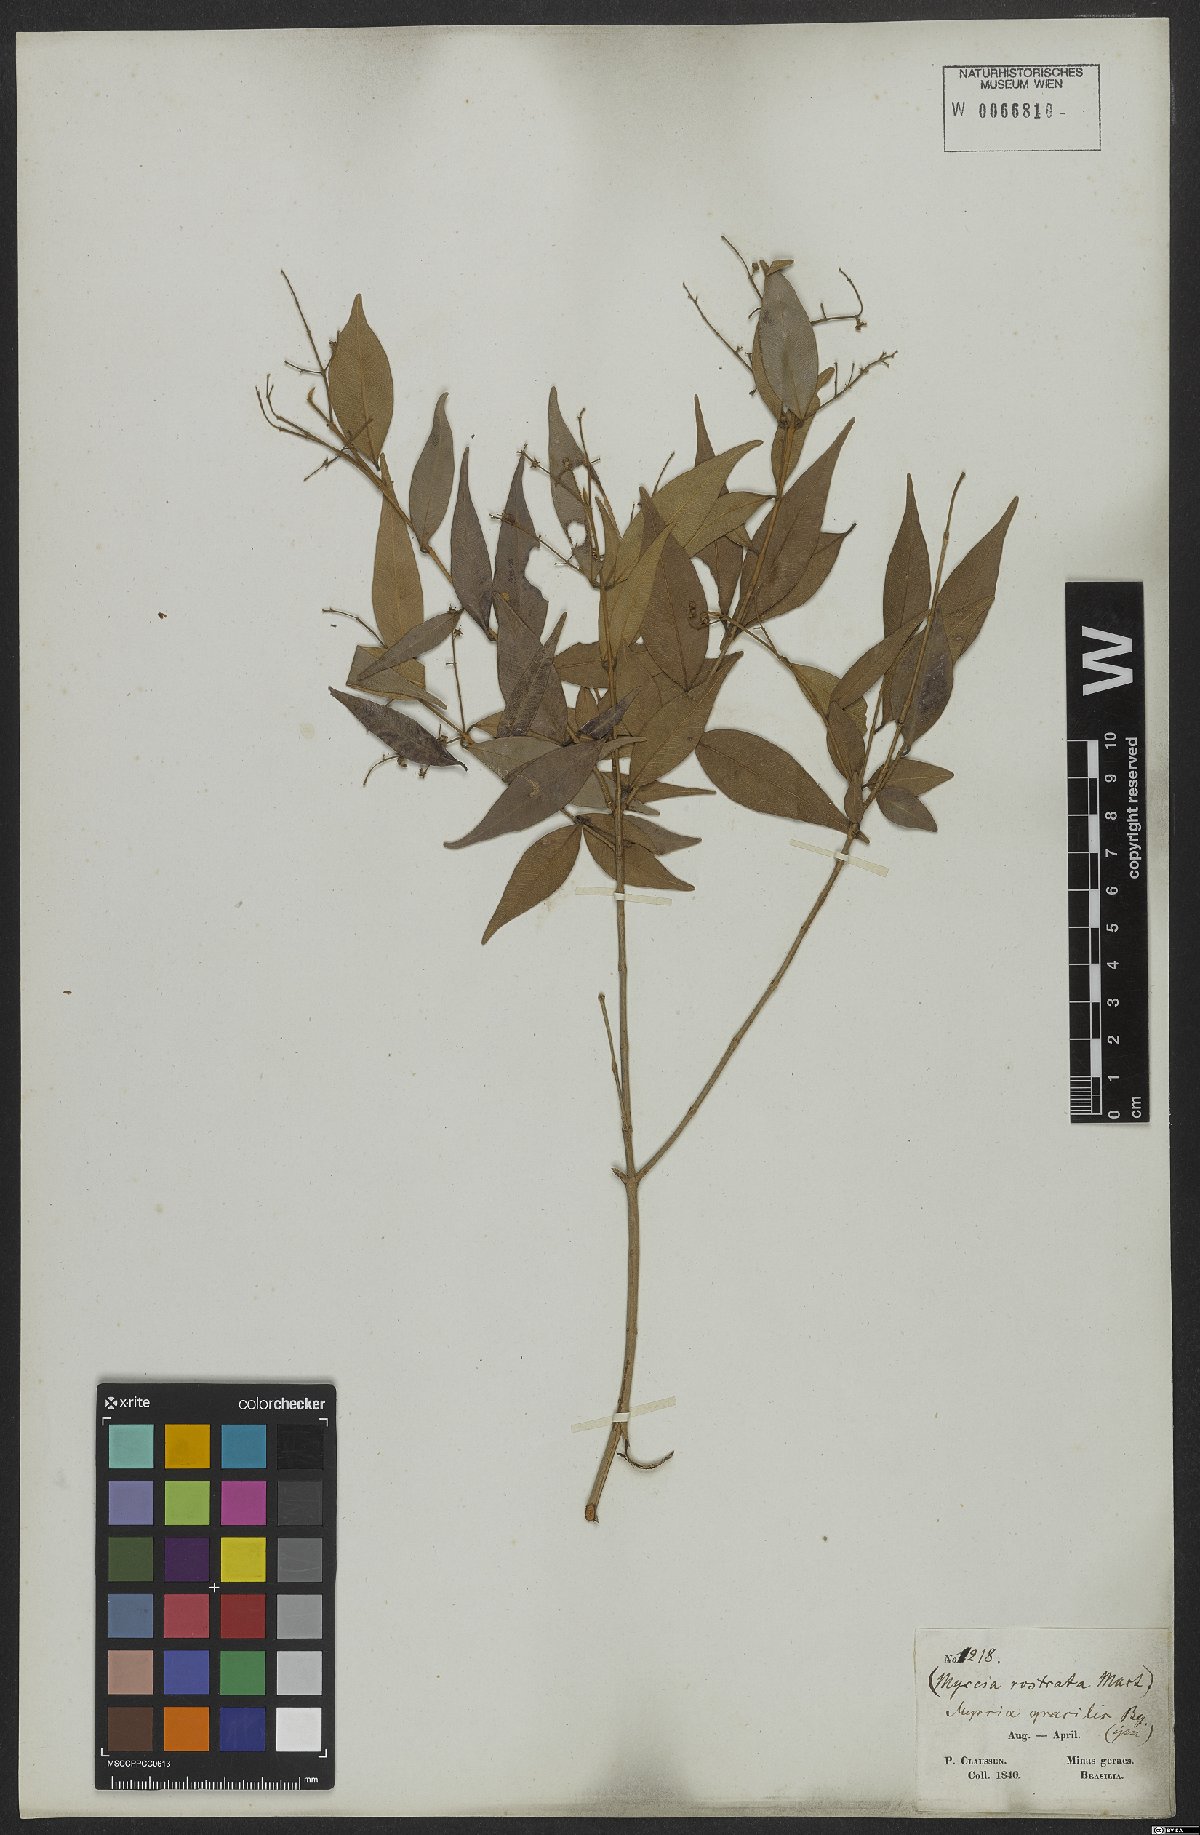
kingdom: Plantae
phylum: Tracheophyta
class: Magnoliopsida
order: Myrtales
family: Myrtaceae
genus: Myrcia
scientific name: Myrcia splendens
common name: Surinam cherry
